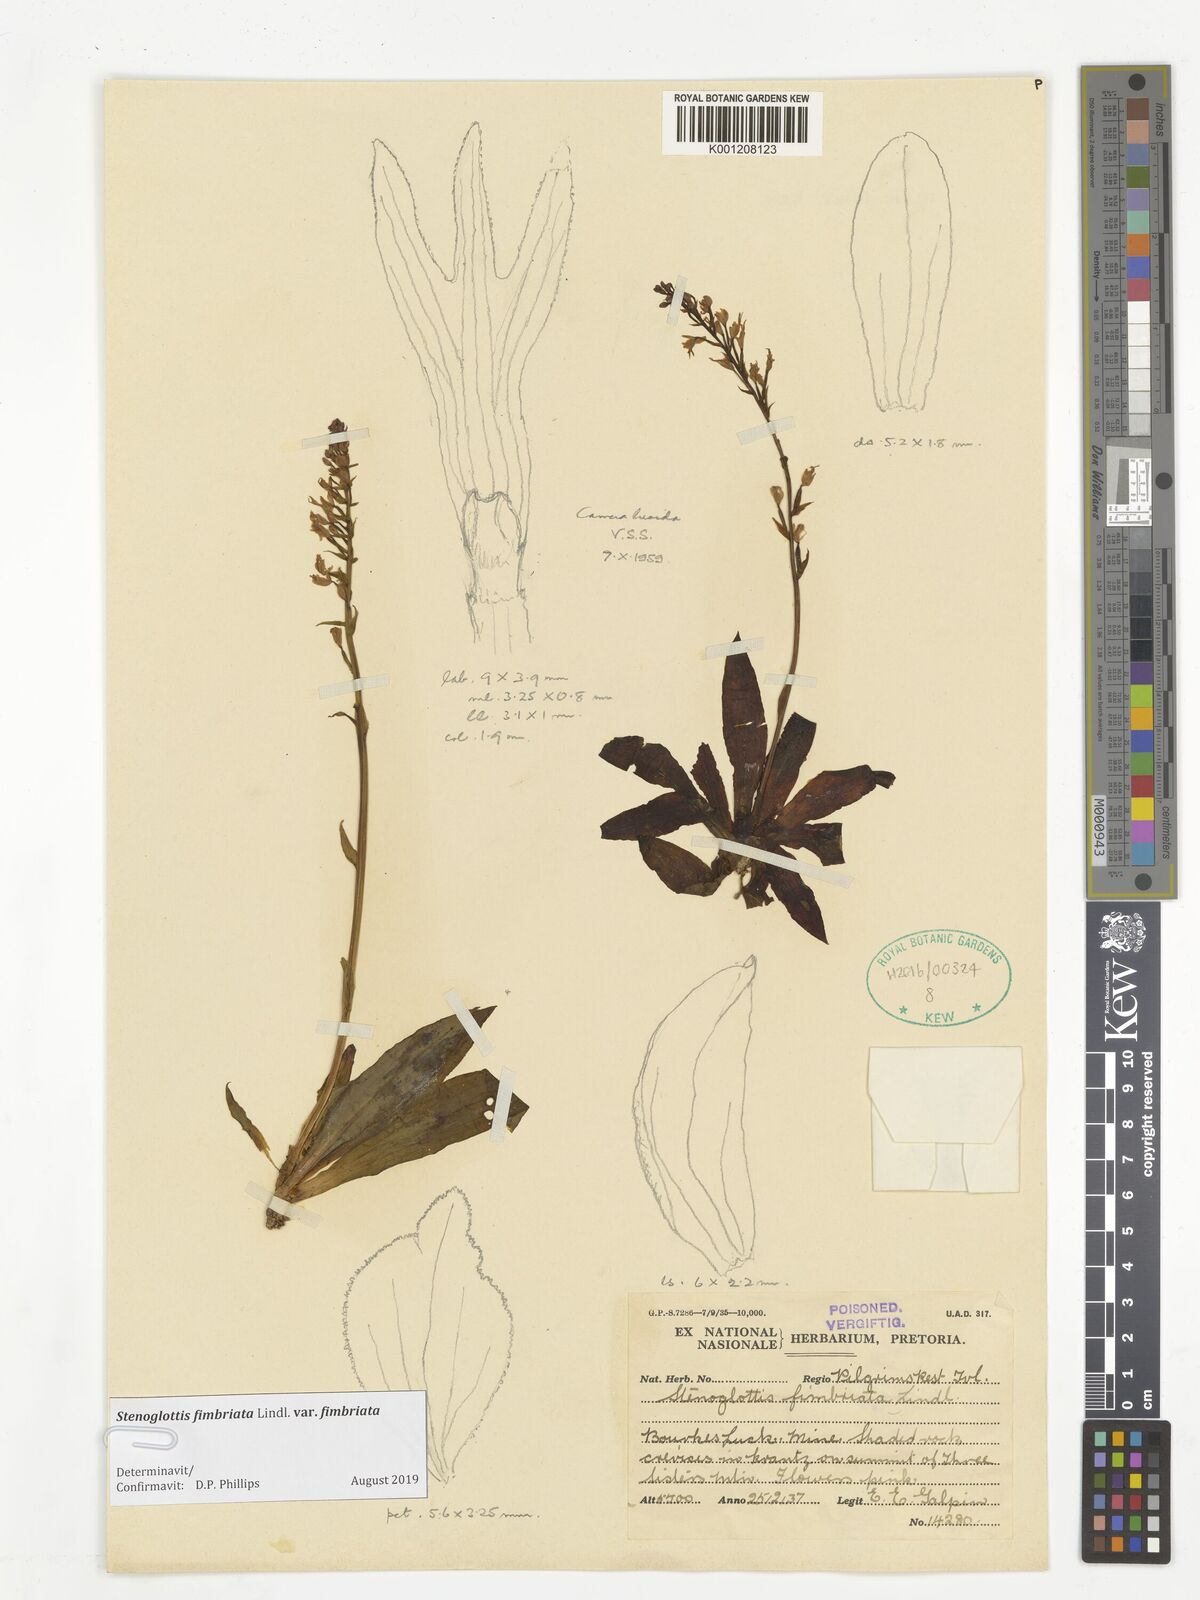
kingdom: Plantae
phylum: Tracheophyta
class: Liliopsida
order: Asparagales
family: Orchidaceae
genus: Stenoglottis
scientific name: Stenoglottis fimbriata
